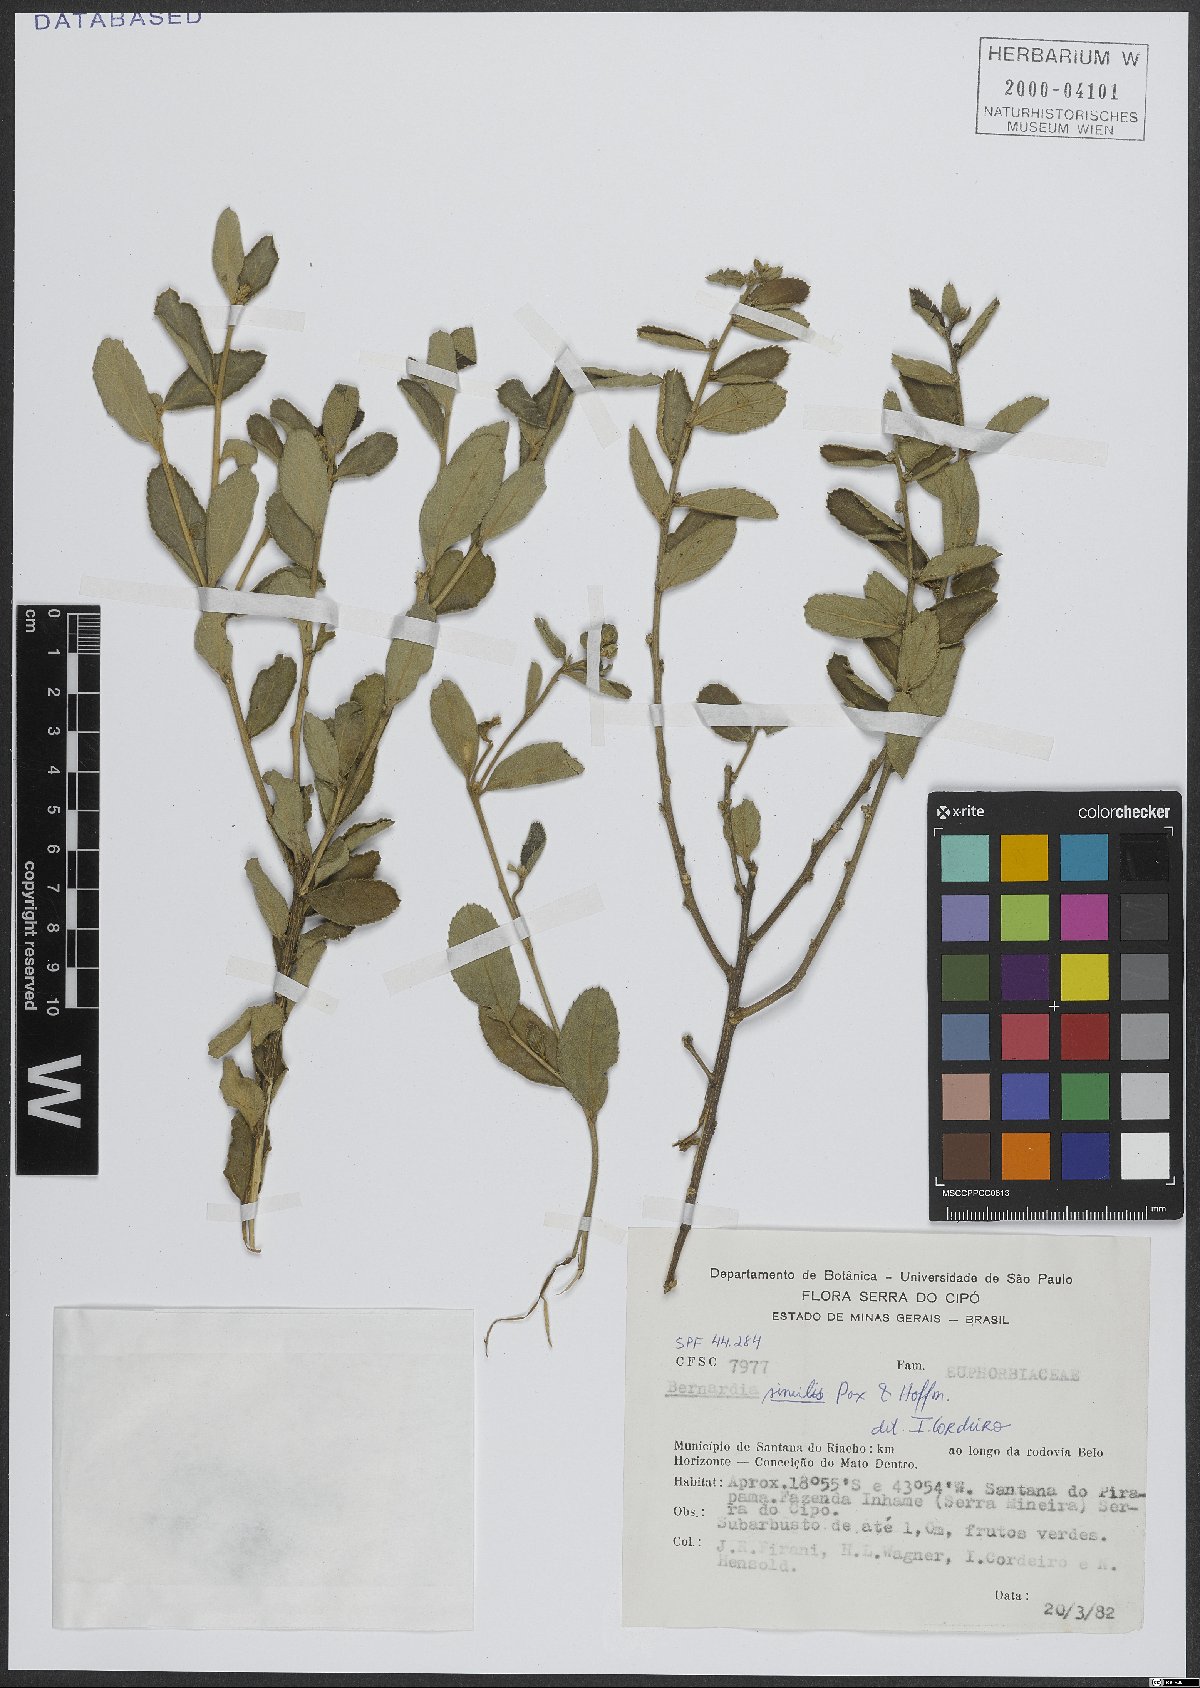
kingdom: Plantae
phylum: Tracheophyta
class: Magnoliopsida
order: Malpighiales
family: Euphorbiaceae
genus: Bernardia
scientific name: Bernardia similis
